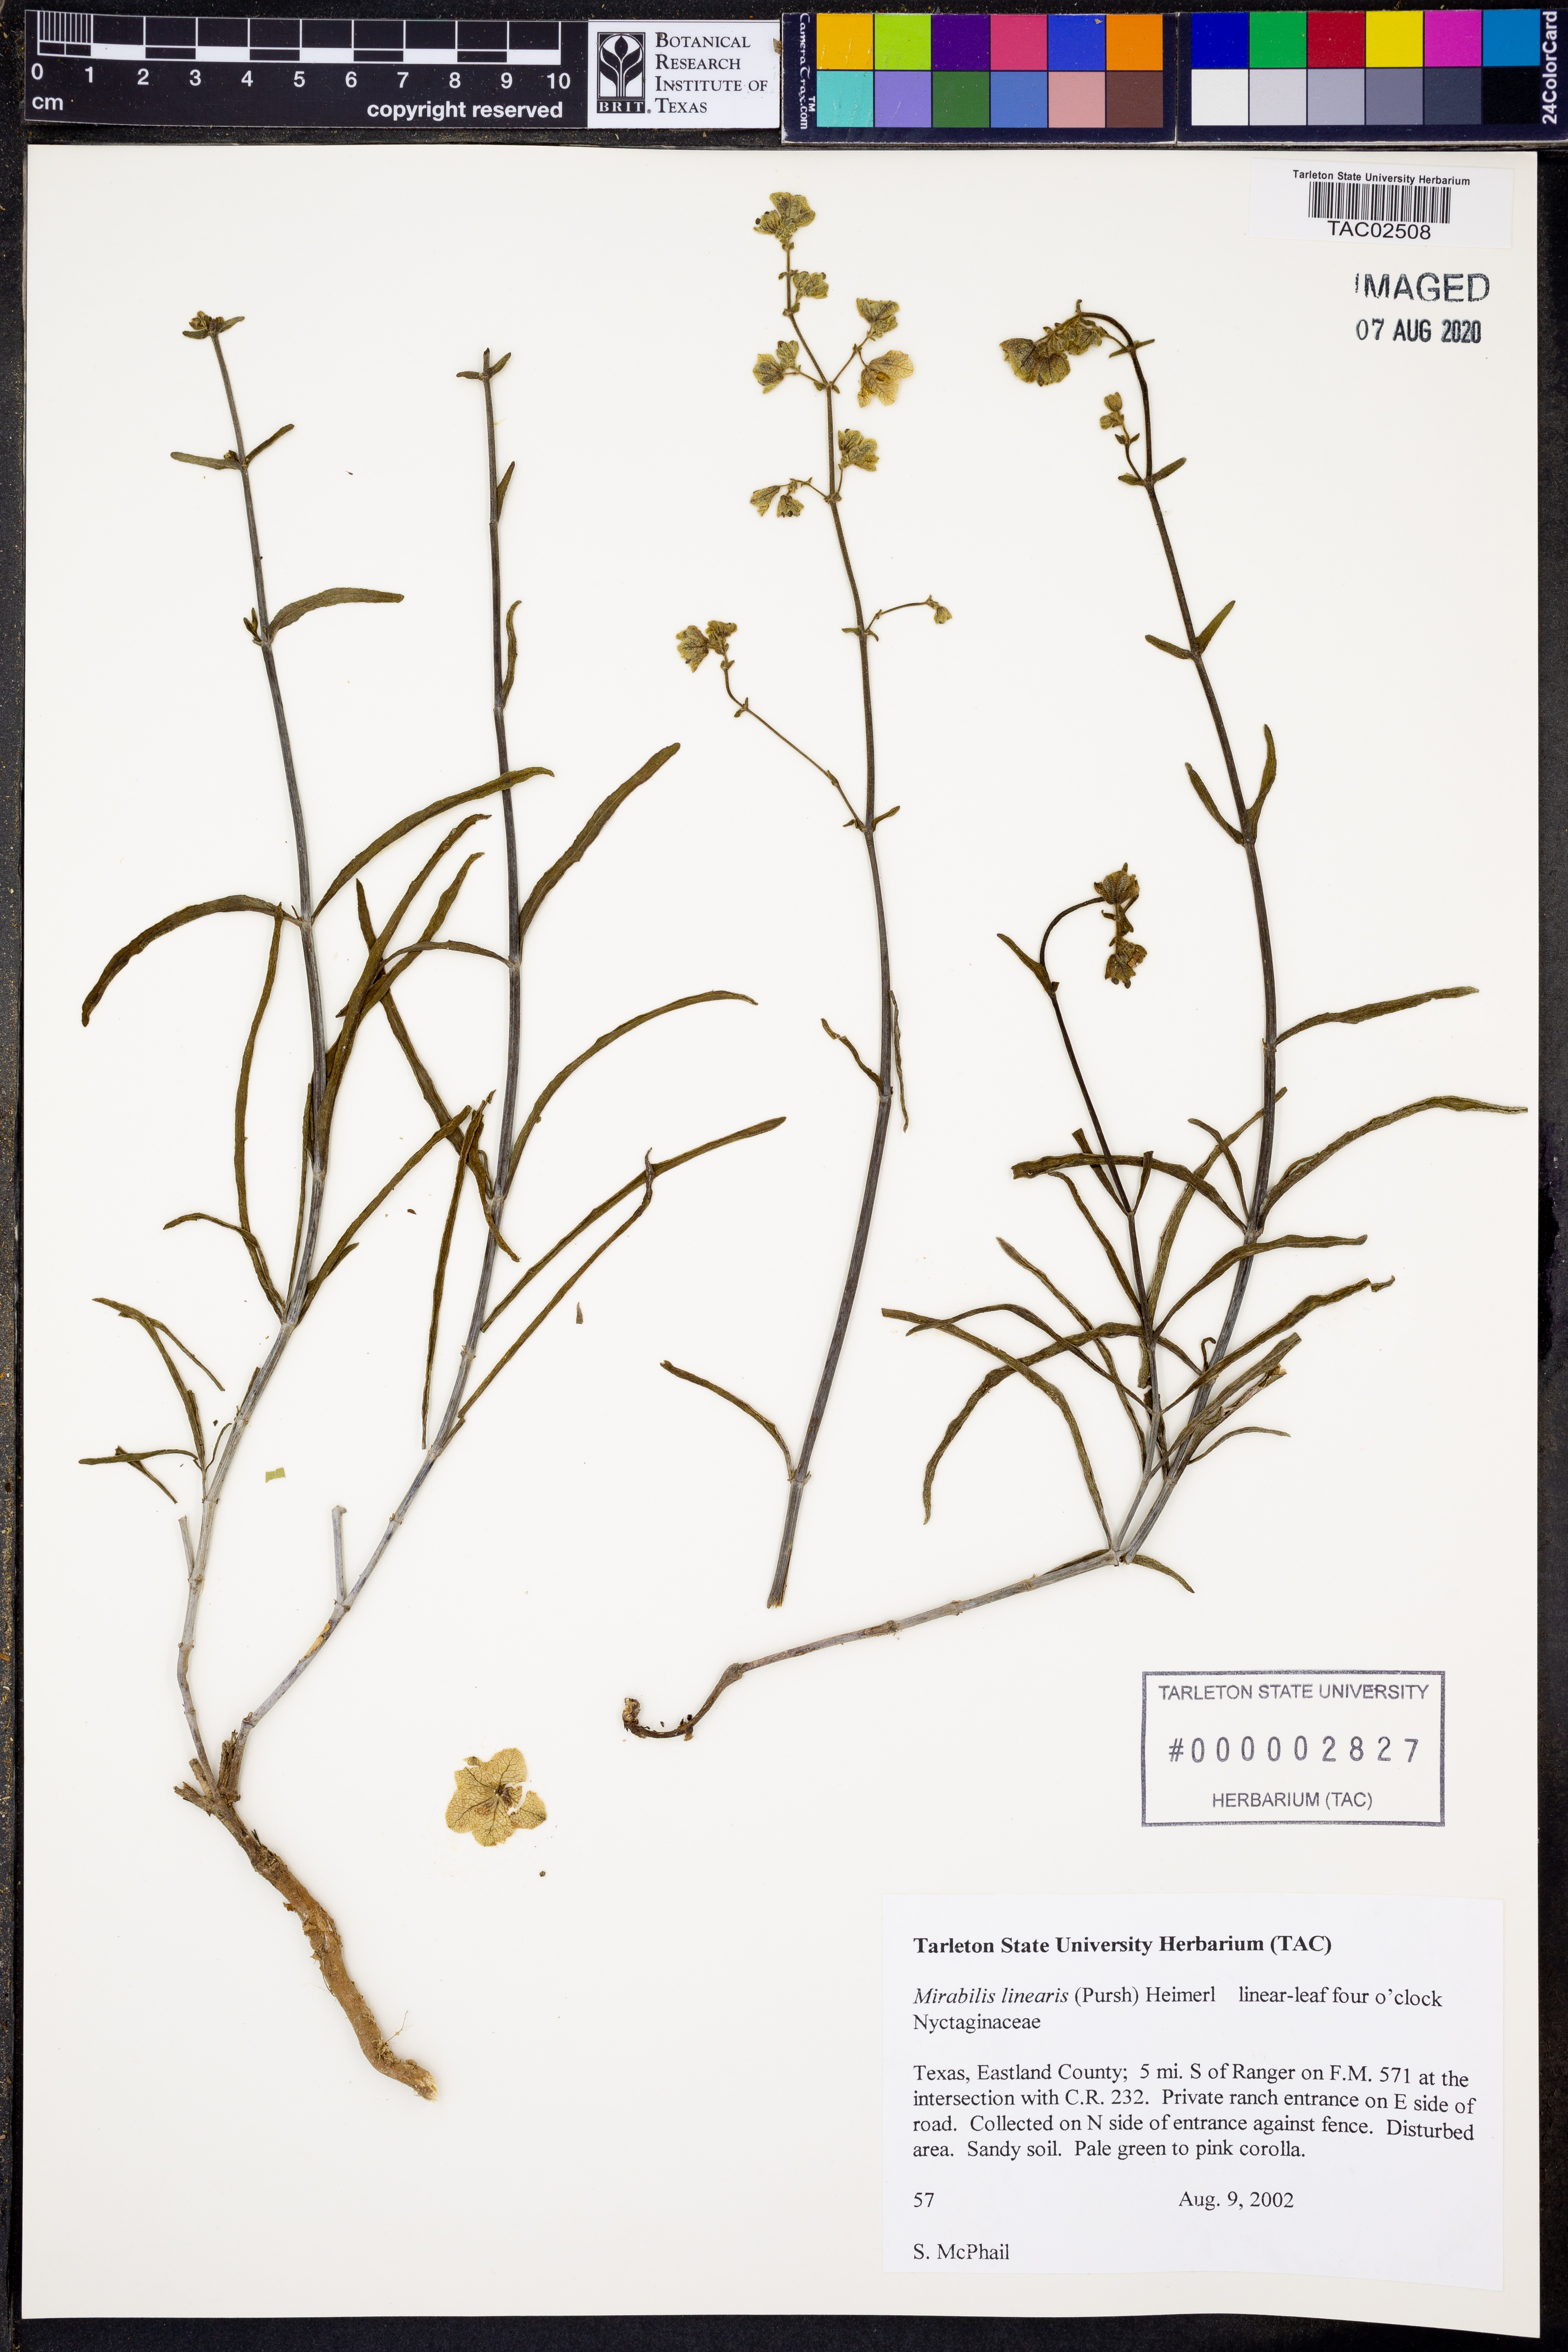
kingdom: Plantae
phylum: Tracheophyta
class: Magnoliopsida
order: Caryophyllales
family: Nyctaginaceae
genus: Mirabilis
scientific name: Mirabilis linearis
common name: Linear-leaved four-o'clock
